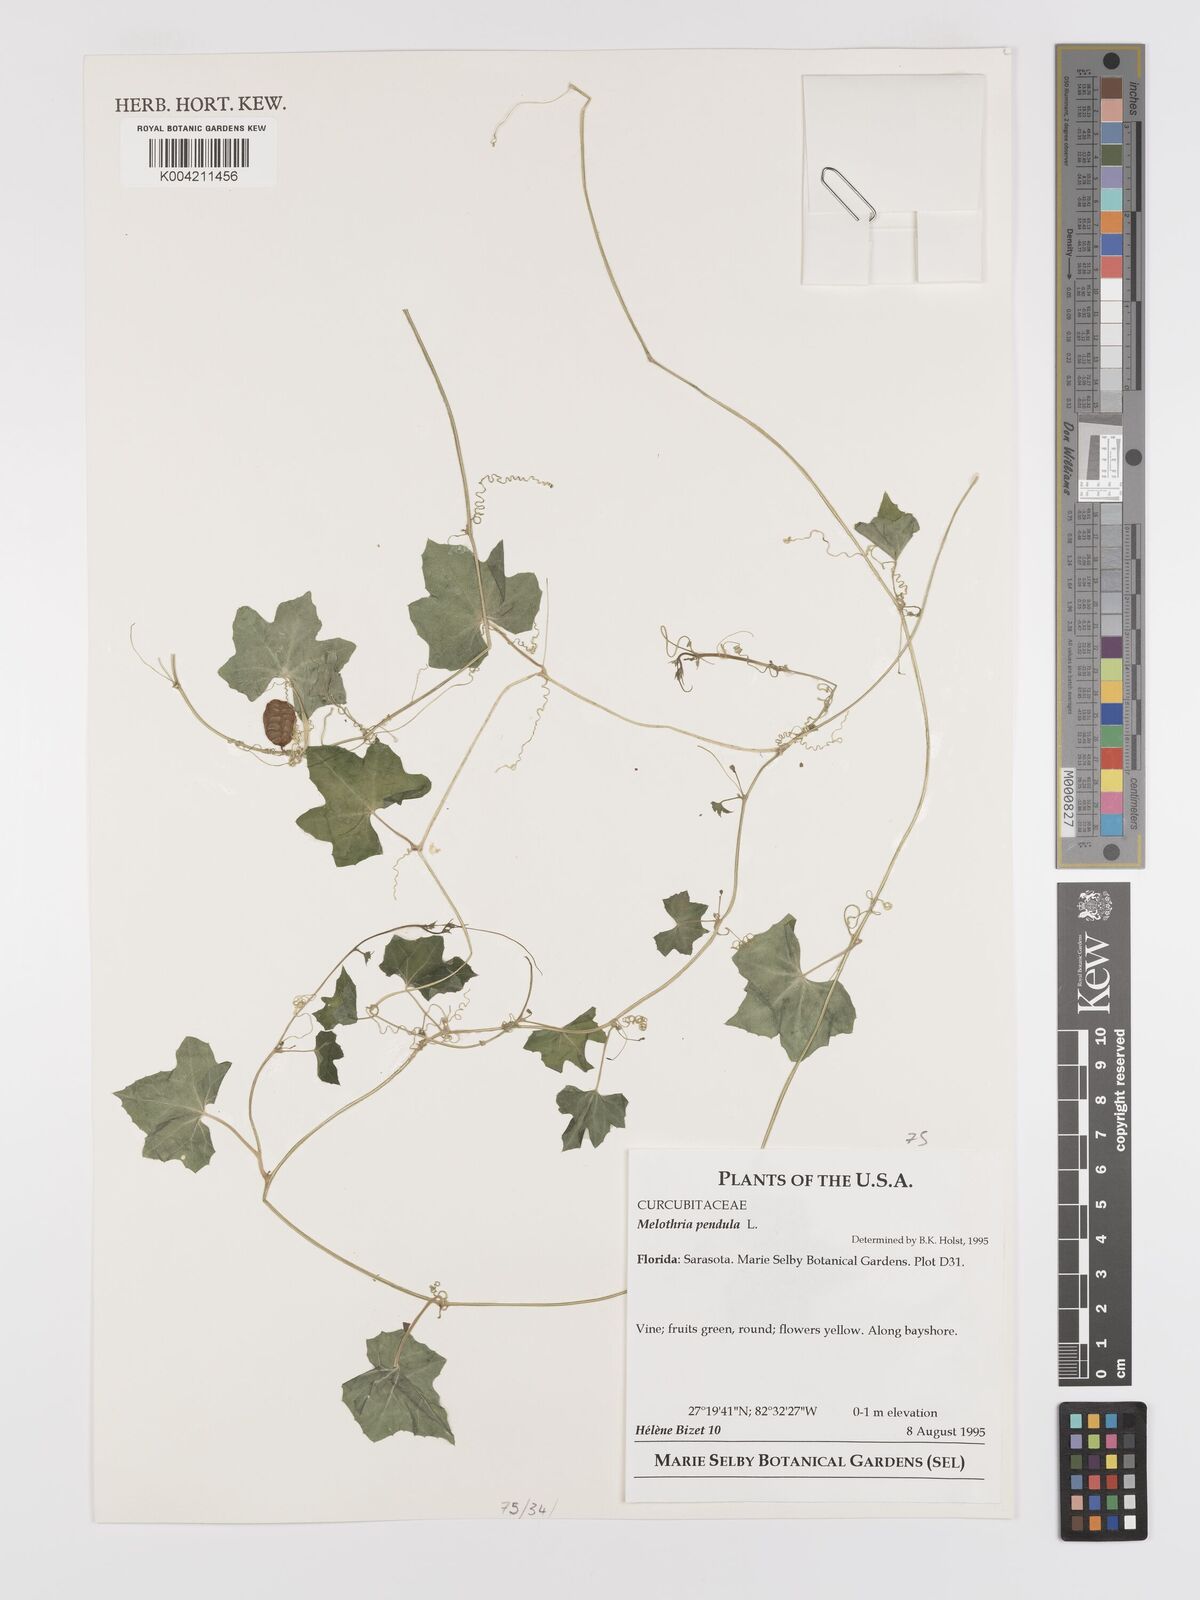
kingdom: Plantae
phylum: Tracheophyta
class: Magnoliopsida
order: Cucurbitales
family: Cucurbitaceae
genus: Melothria
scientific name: Melothria pendula
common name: Creeping-cucumber
